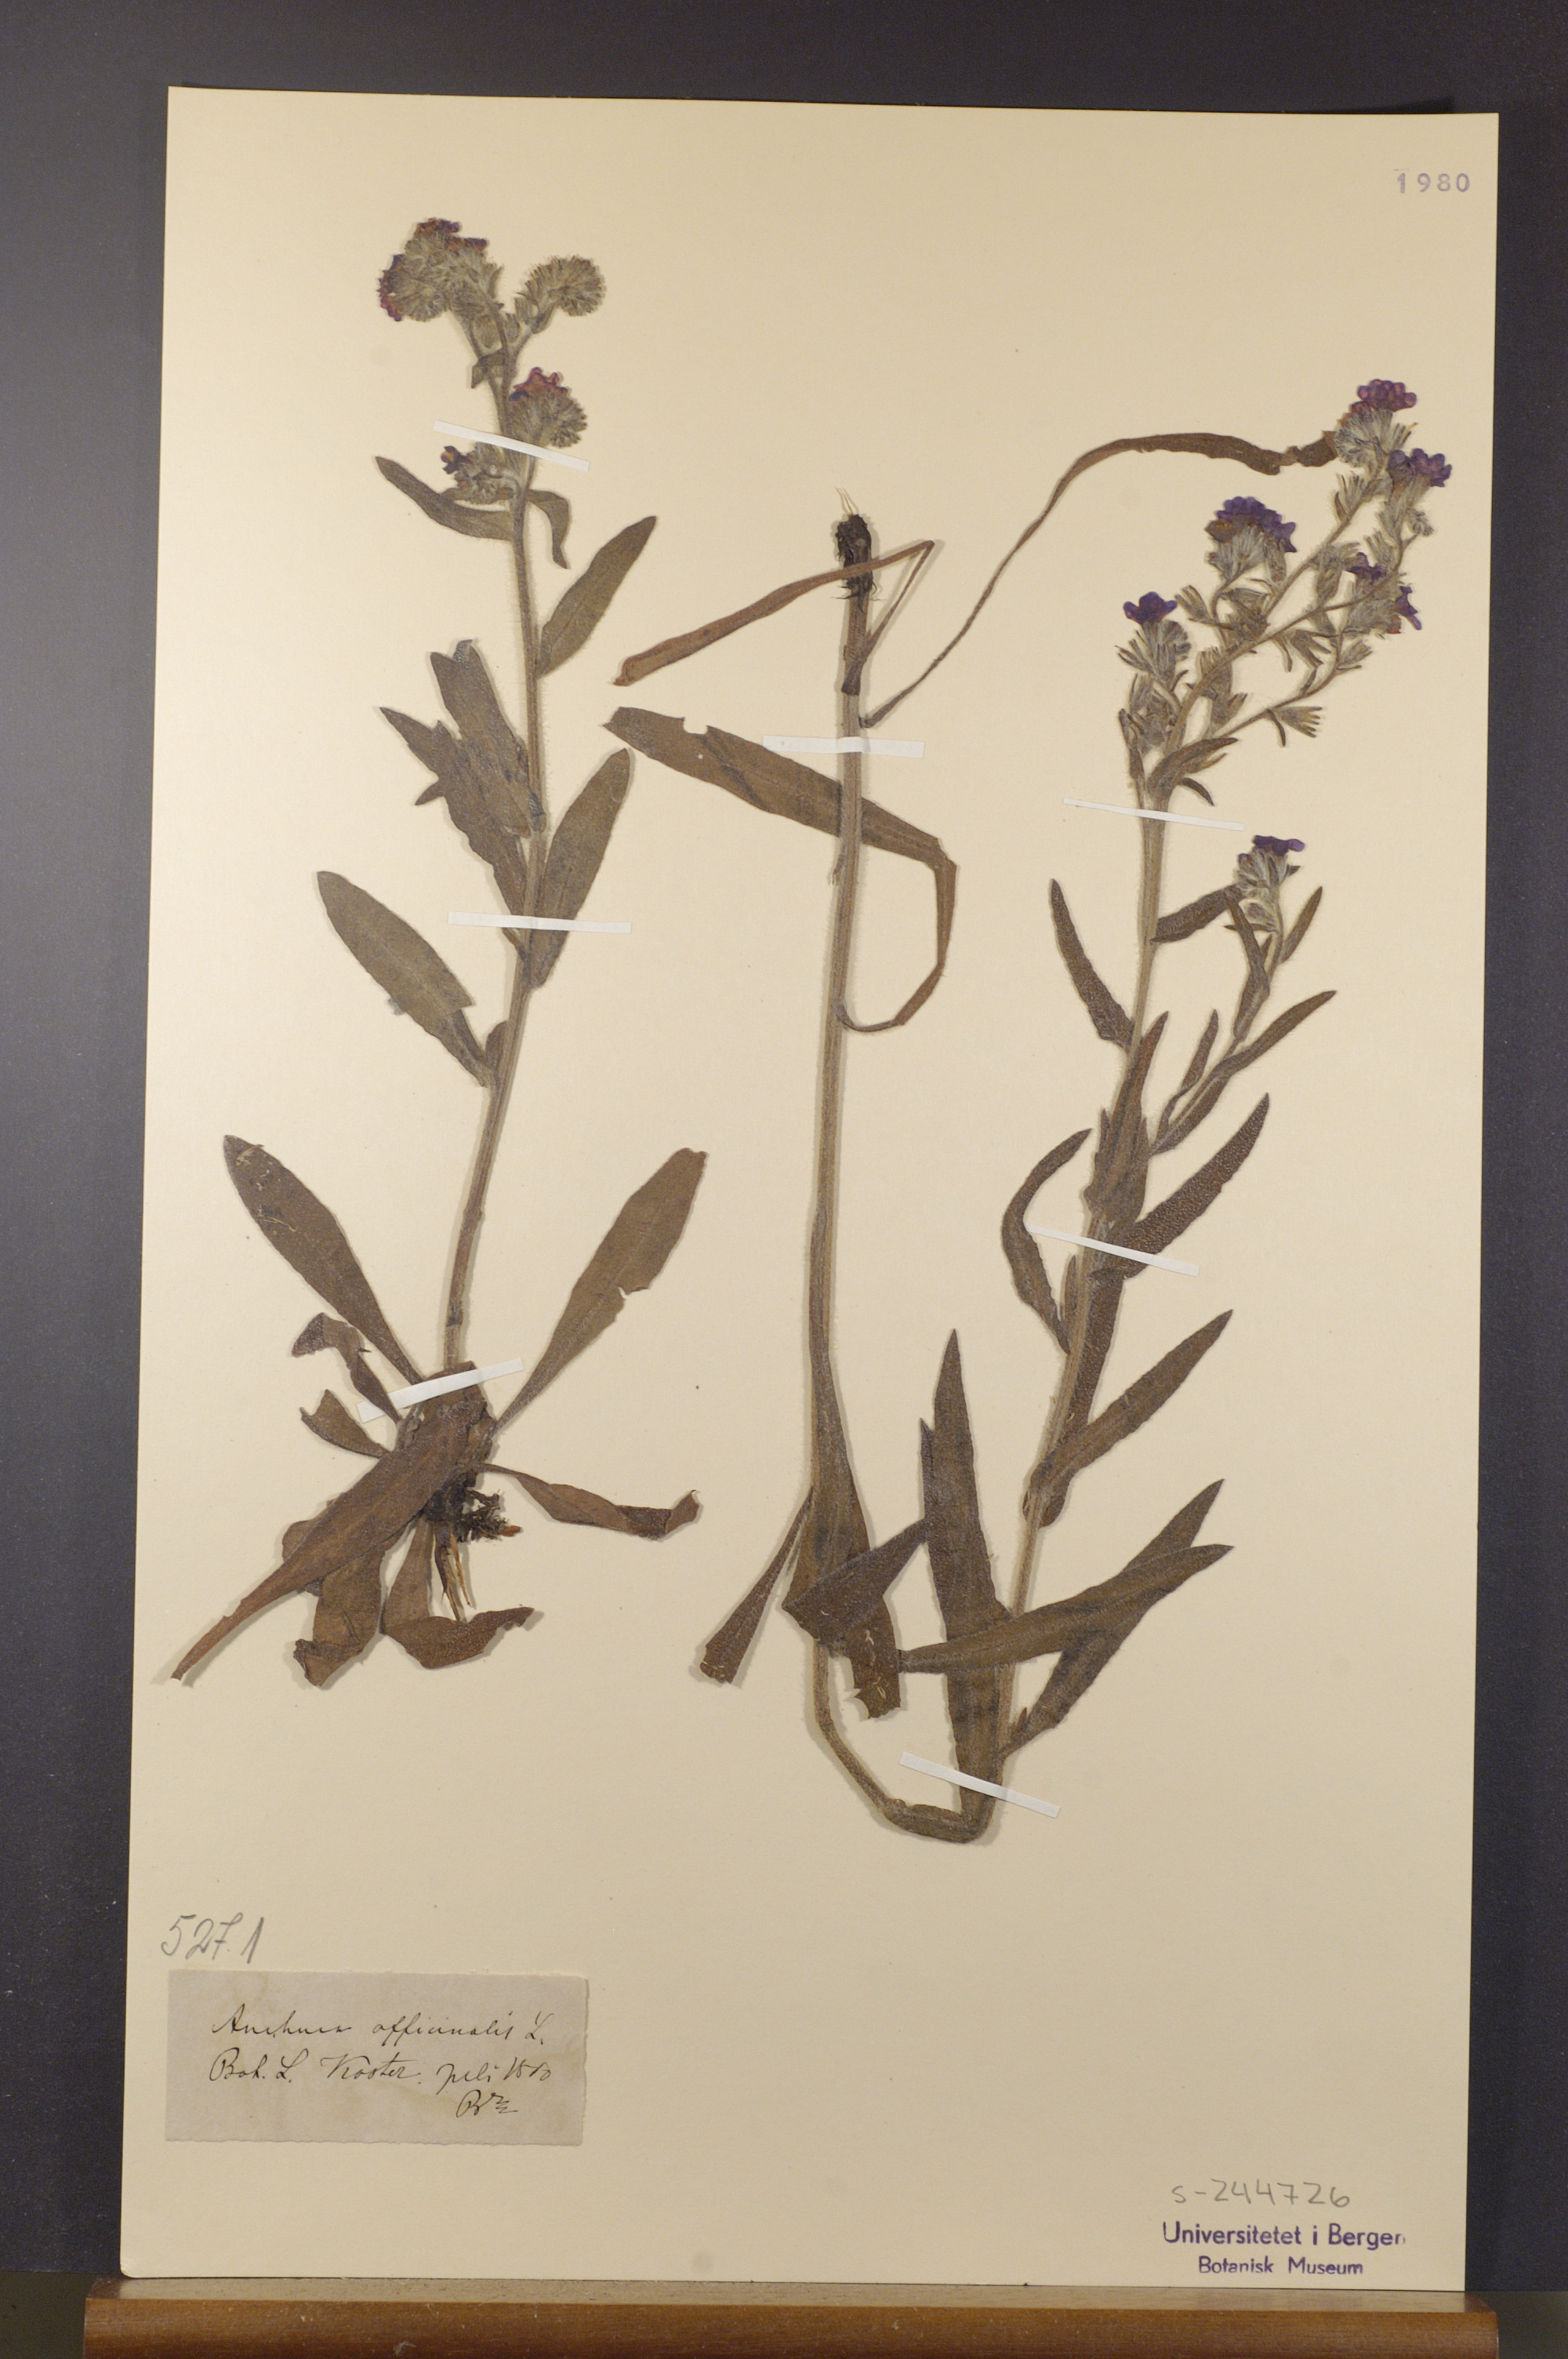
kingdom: Plantae
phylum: Tracheophyta
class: Magnoliopsida
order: Boraginales
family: Boraginaceae
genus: Anchusa
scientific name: Anchusa officinalis
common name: Alkanet
